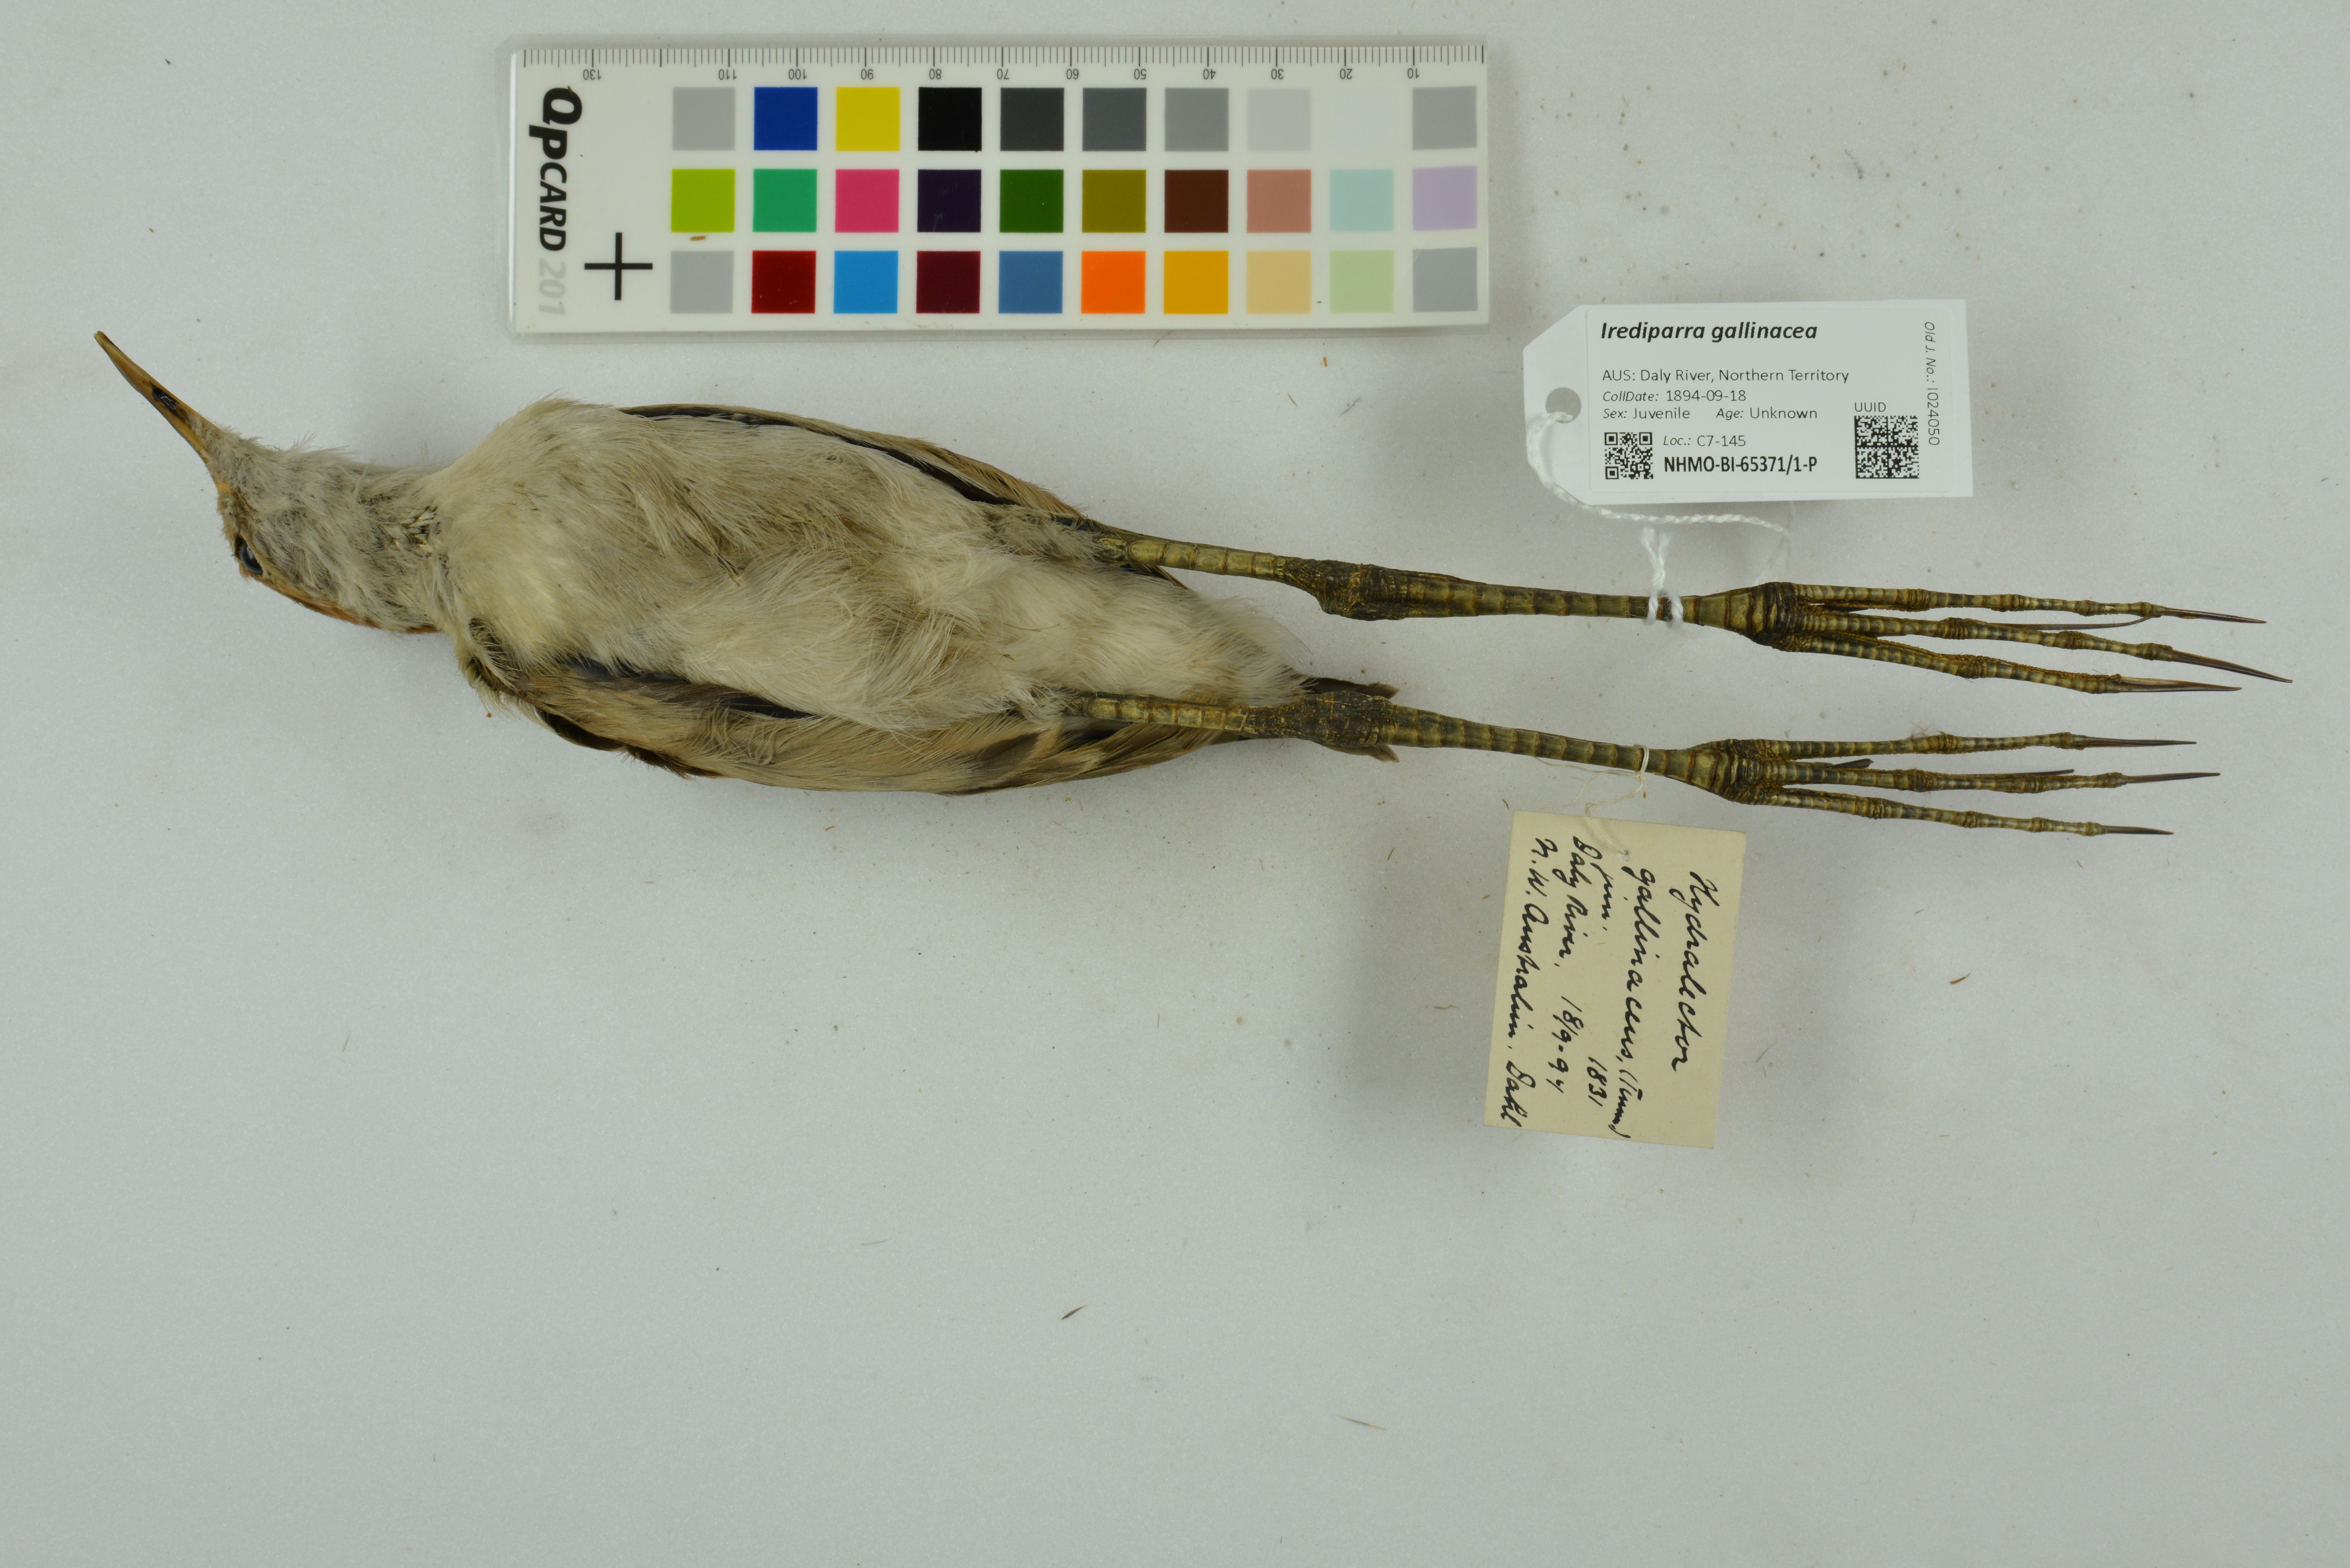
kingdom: Animalia
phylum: Chordata
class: Aves
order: Charadriiformes
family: Jacanidae
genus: Irediparra
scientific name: Irediparra gallinacea
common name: Comb-crested jacana
